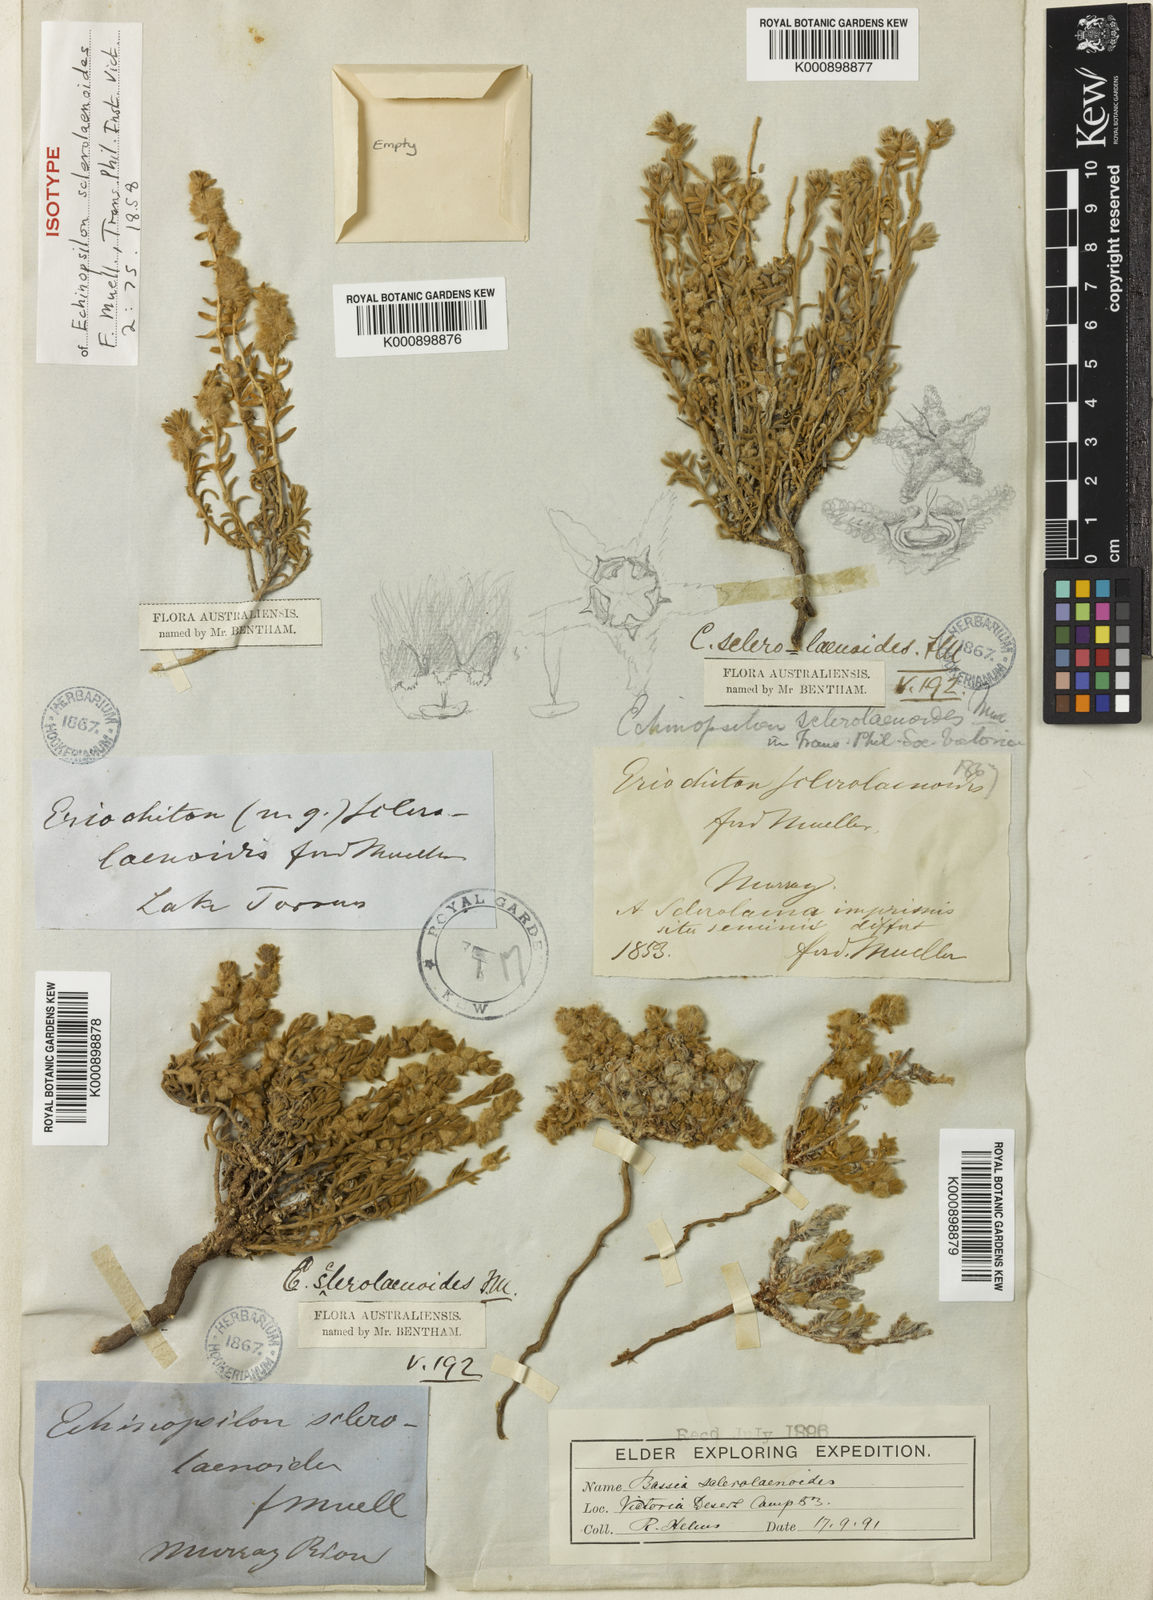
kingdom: Plantae
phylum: Tracheophyta
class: Magnoliopsida
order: Caryophyllales
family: Amaranthaceae
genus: Maireana
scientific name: Maireana sclerolaenoides
